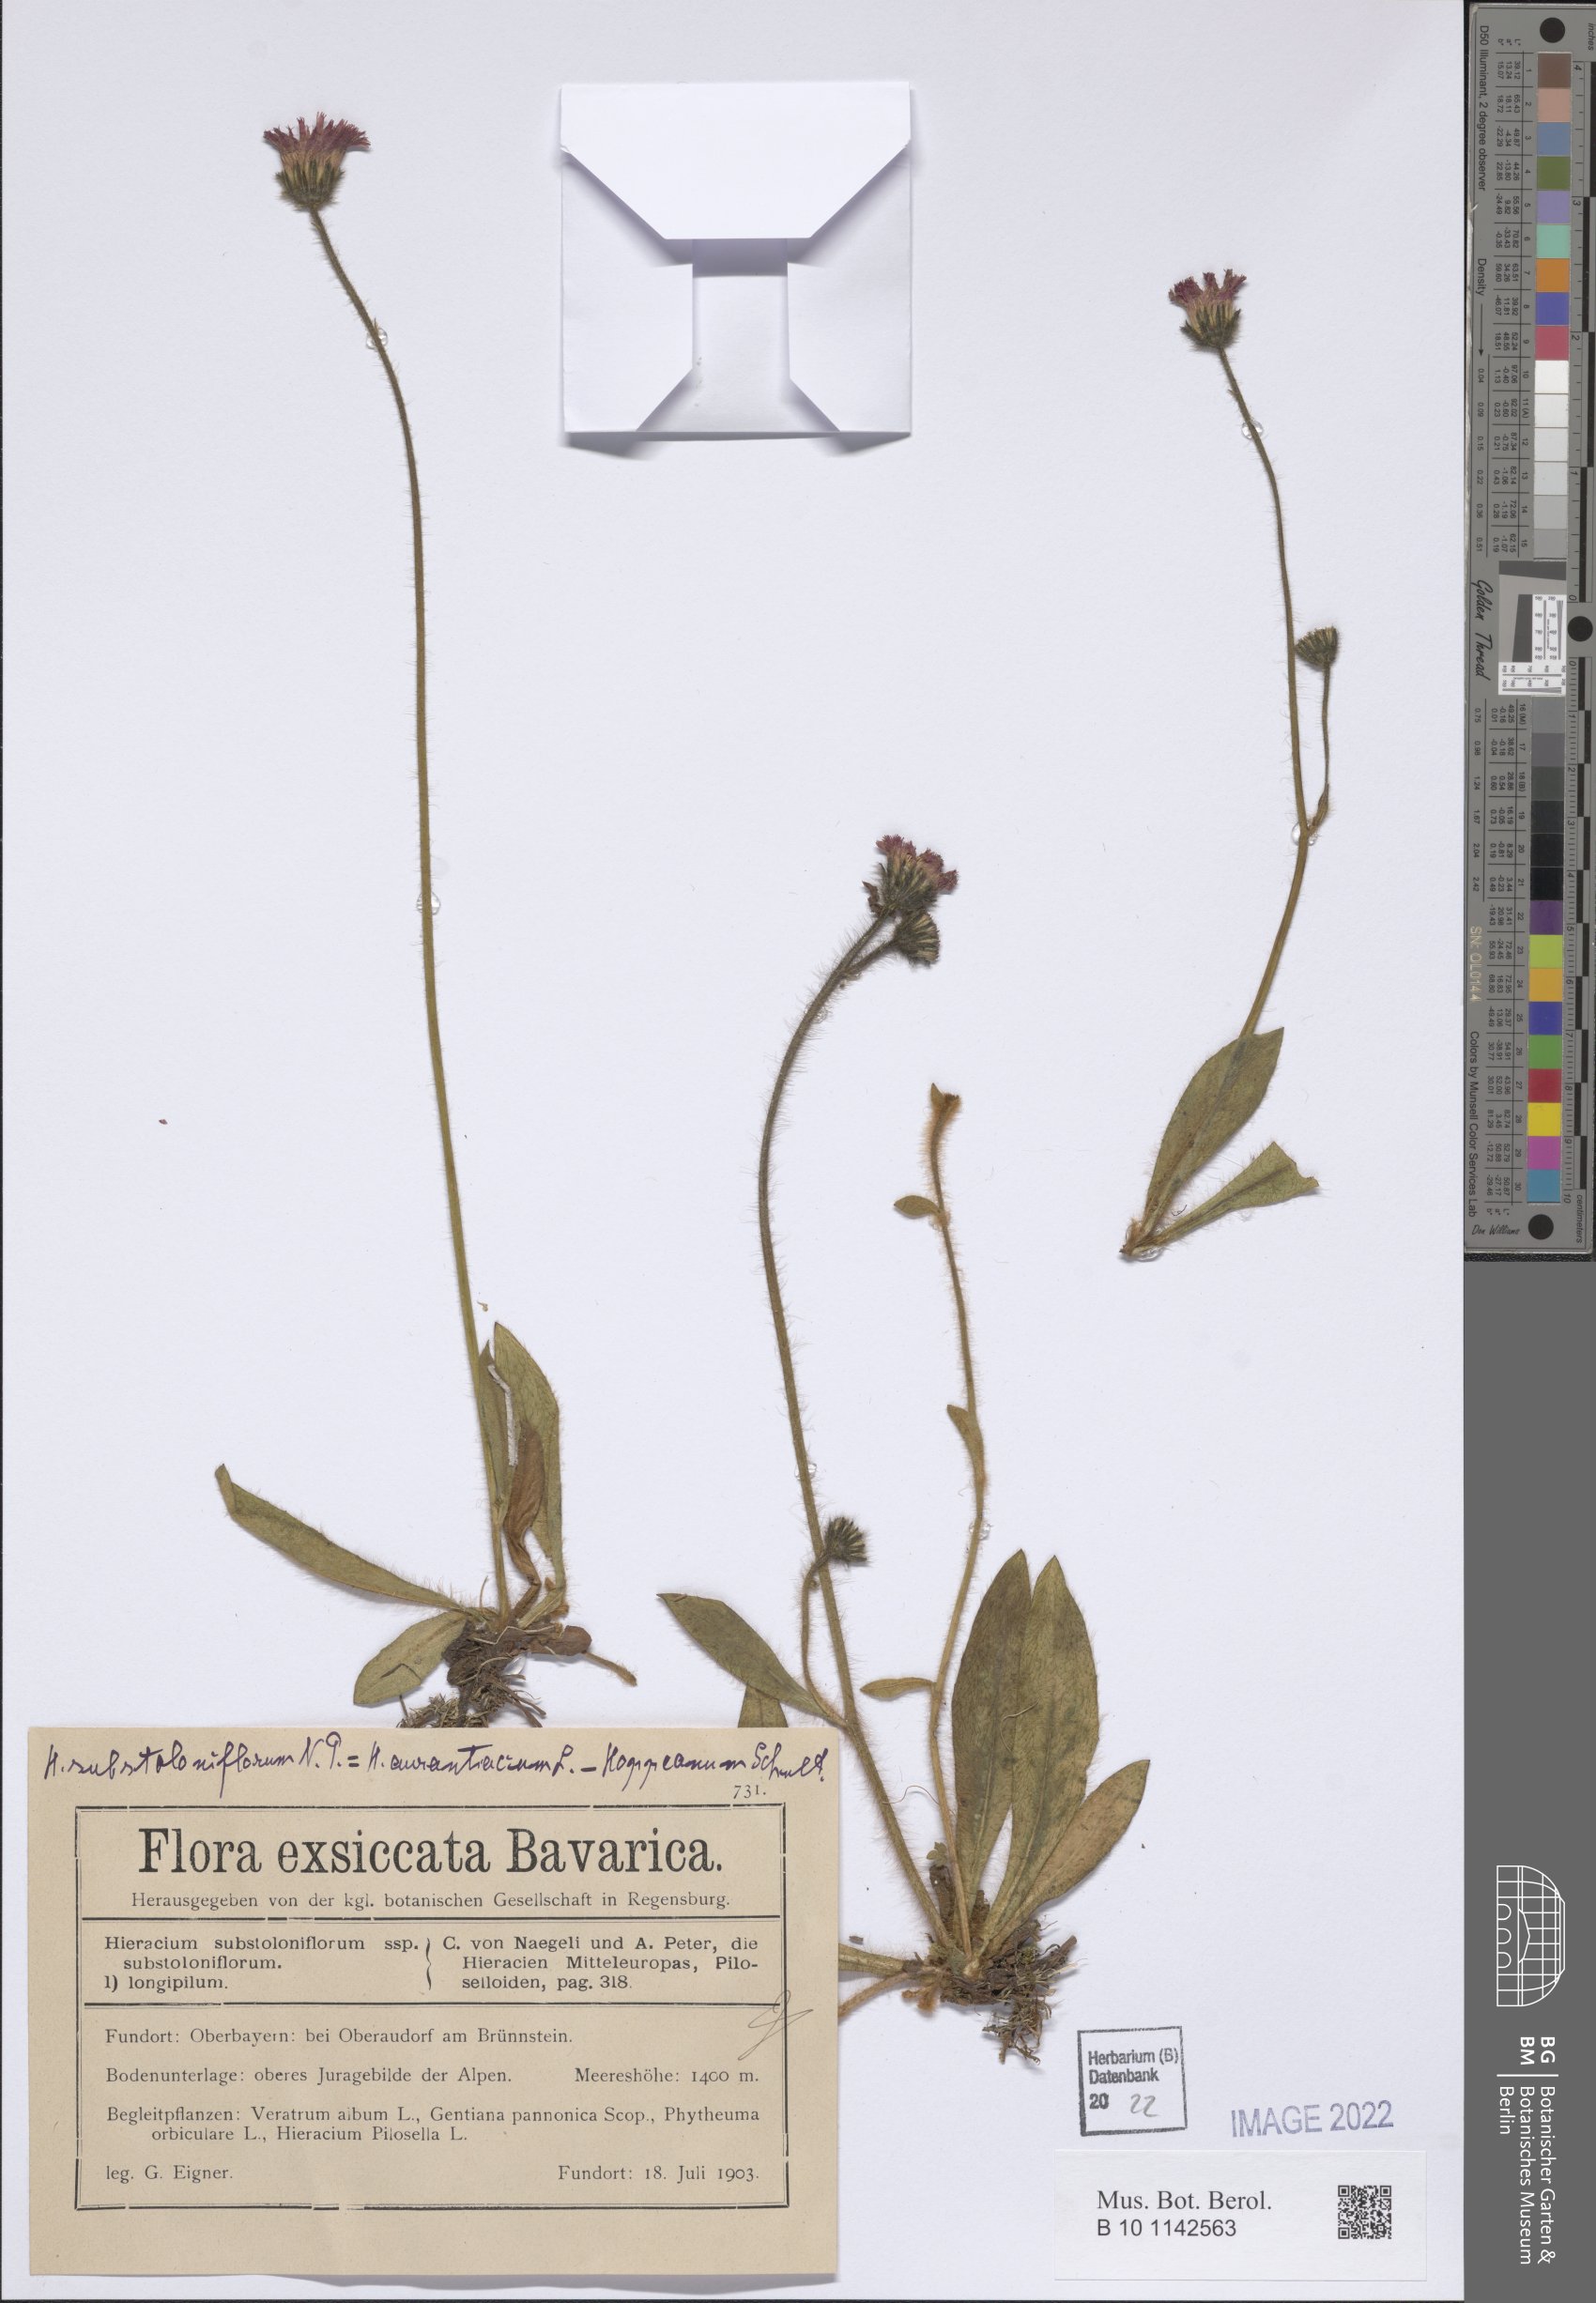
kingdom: Plantae
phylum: Tracheophyta
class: Magnoliopsida
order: Asterales
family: Asteraceae
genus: Pilosella
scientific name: Pilosella substoloniflora
